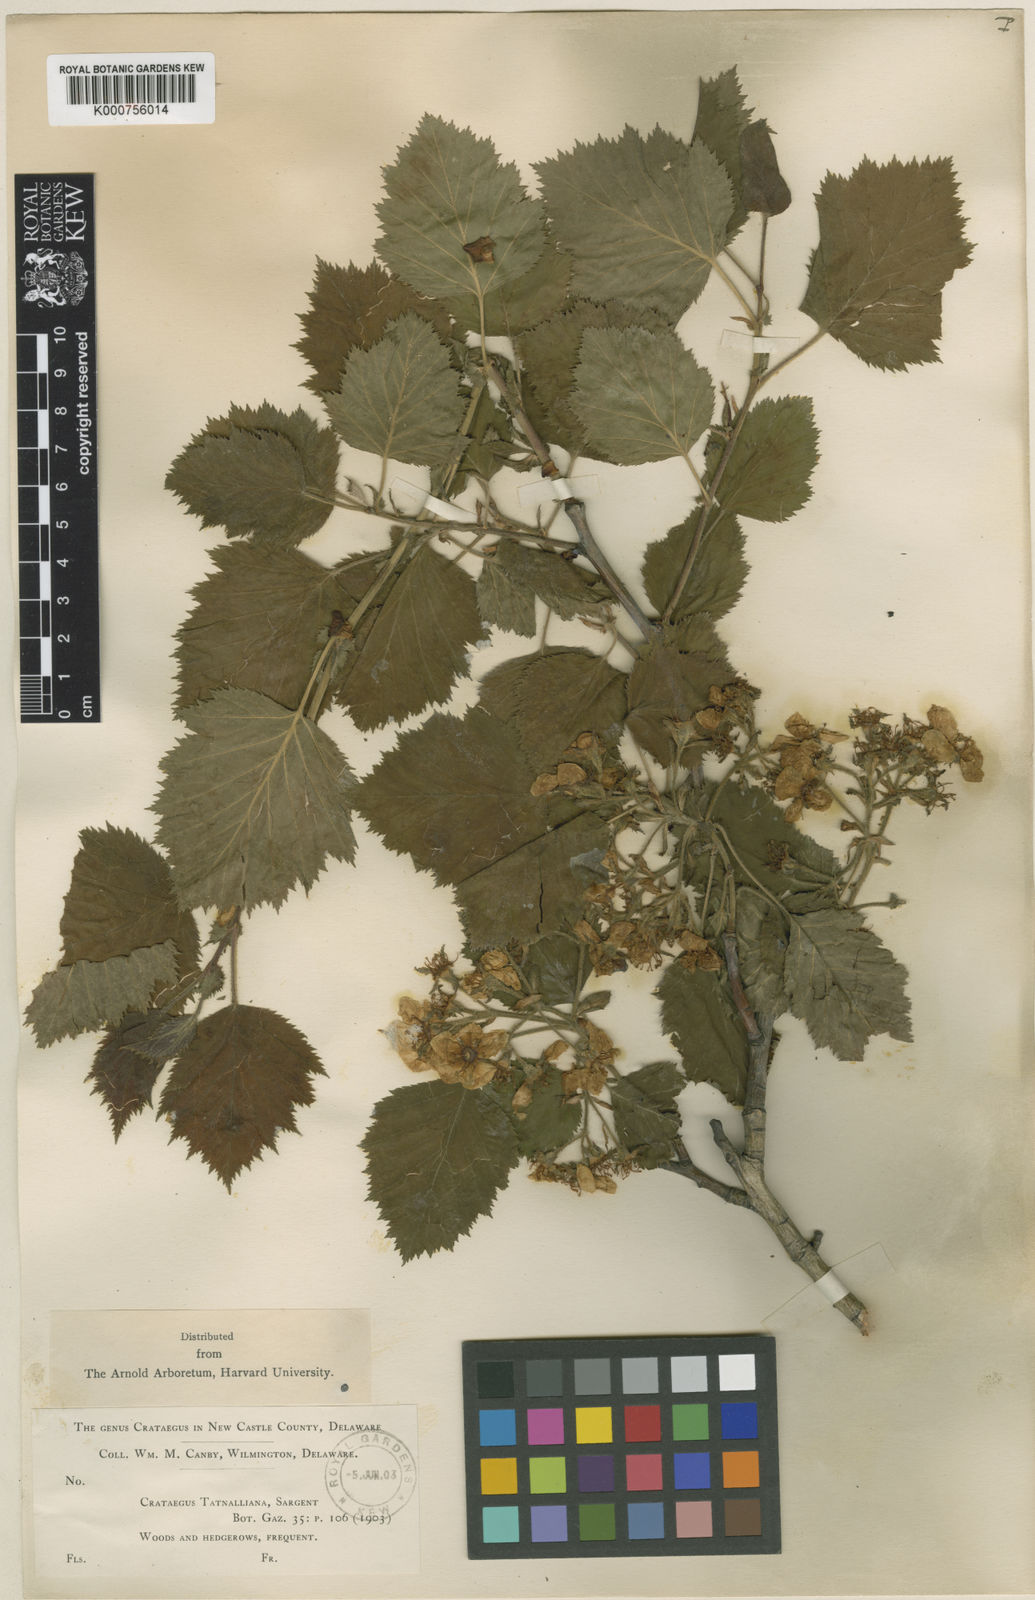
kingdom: Plantae
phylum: Tracheophyta
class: Magnoliopsida
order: Rosales
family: Rosaceae
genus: Crataegus
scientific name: Crataegus pennsylvanica
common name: Pennsylvania hawthorn
